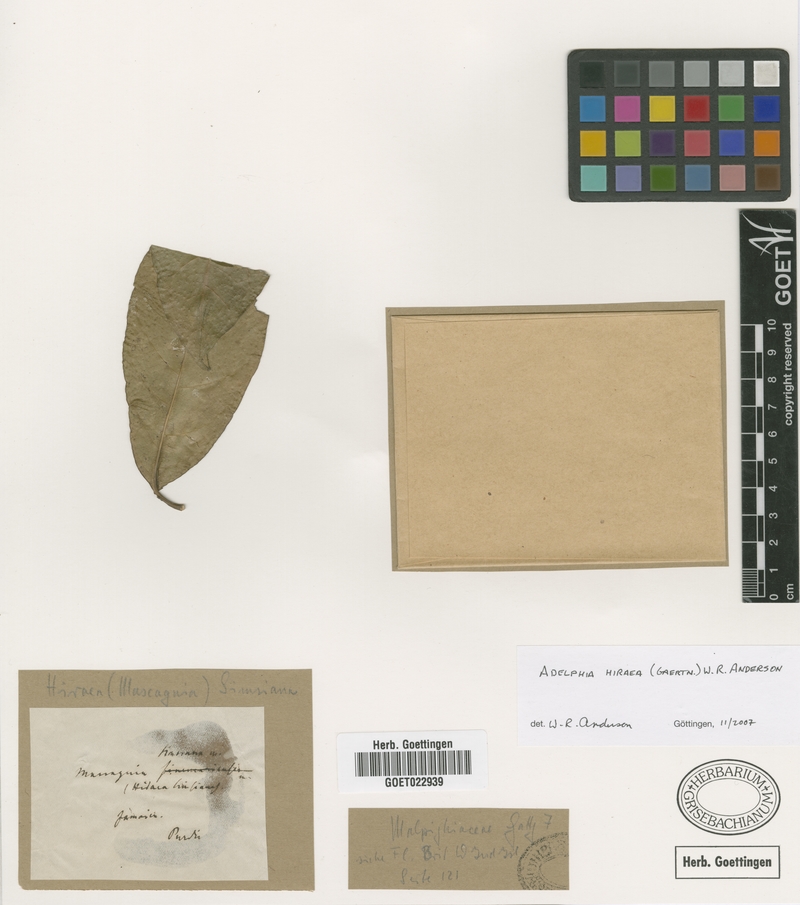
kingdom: Plantae
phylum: Tracheophyta
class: Magnoliopsida
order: Malpighiales
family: Malpighiaceae
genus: Adelphia
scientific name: Adelphia hiraea
